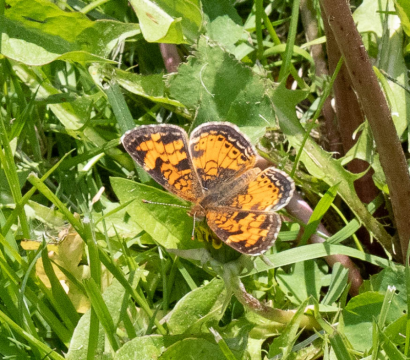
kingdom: Animalia
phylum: Arthropoda
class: Insecta
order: Lepidoptera
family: Nymphalidae
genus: Phyciodes
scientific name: Phyciodes
